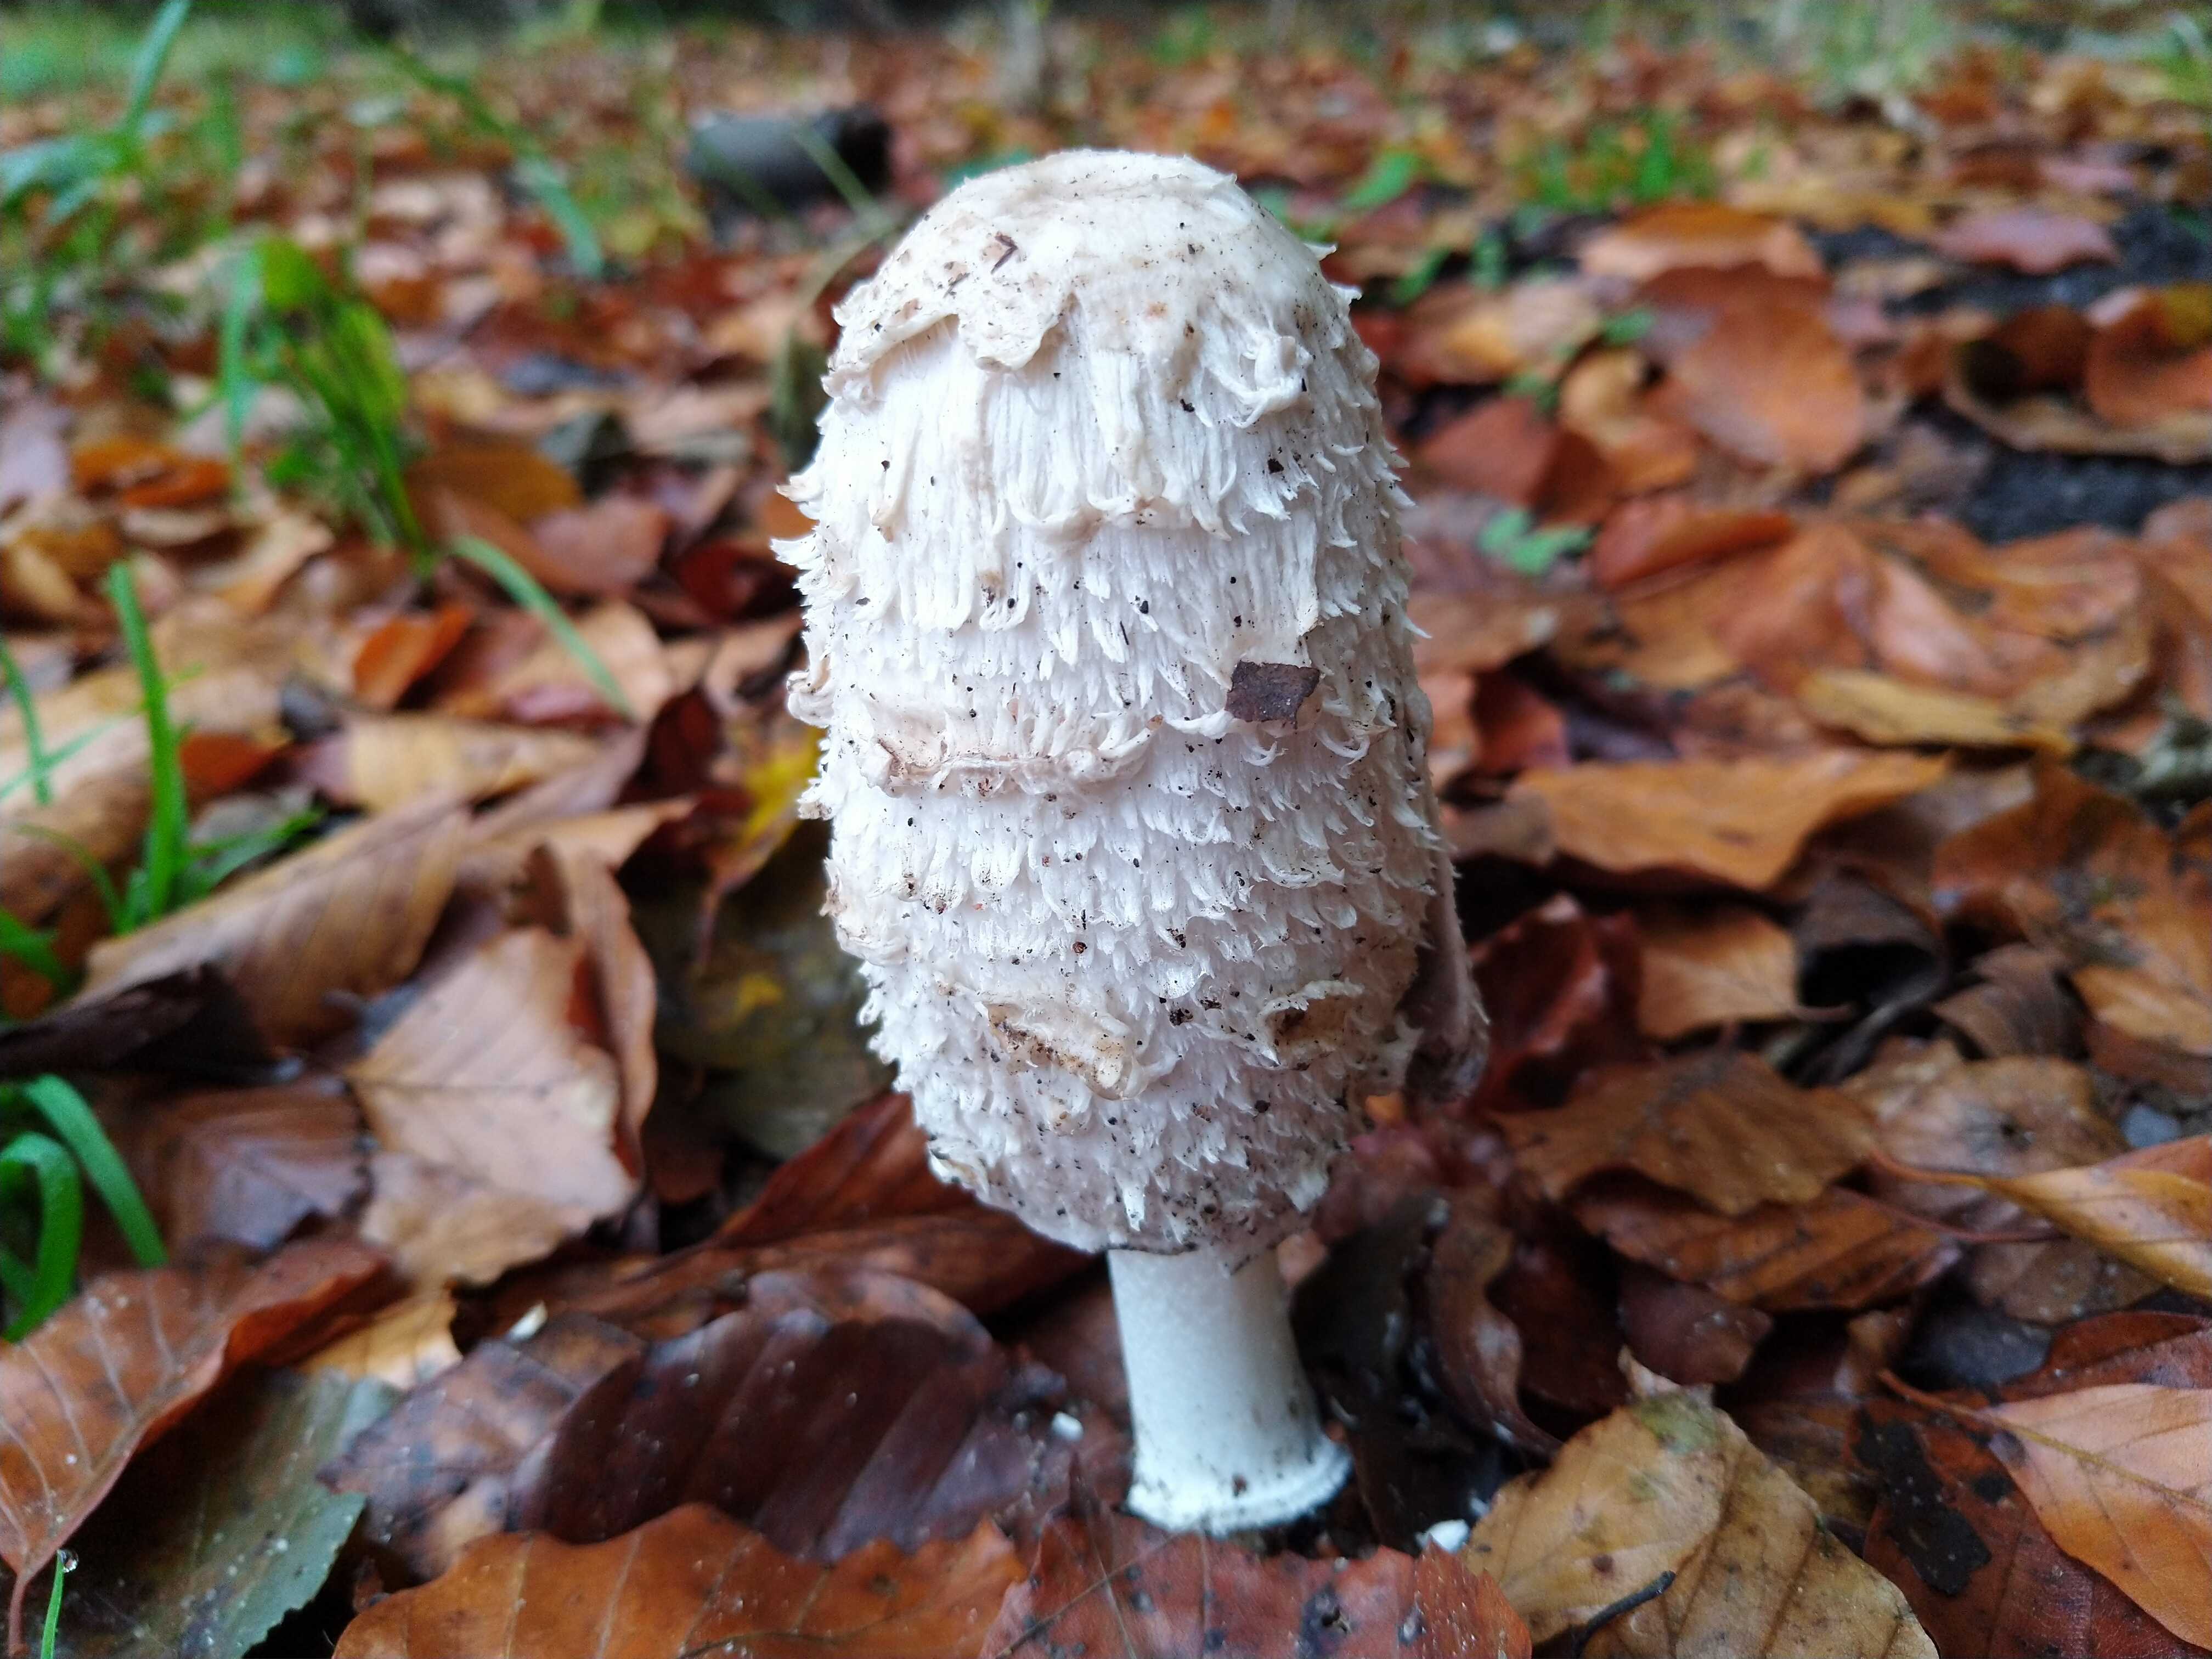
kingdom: Fungi
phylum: Basidiomycota
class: Agaricomycetes
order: Agaricales
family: Agaricaceae
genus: Coprinus
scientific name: Coprinus comatus
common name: stor parykhat
